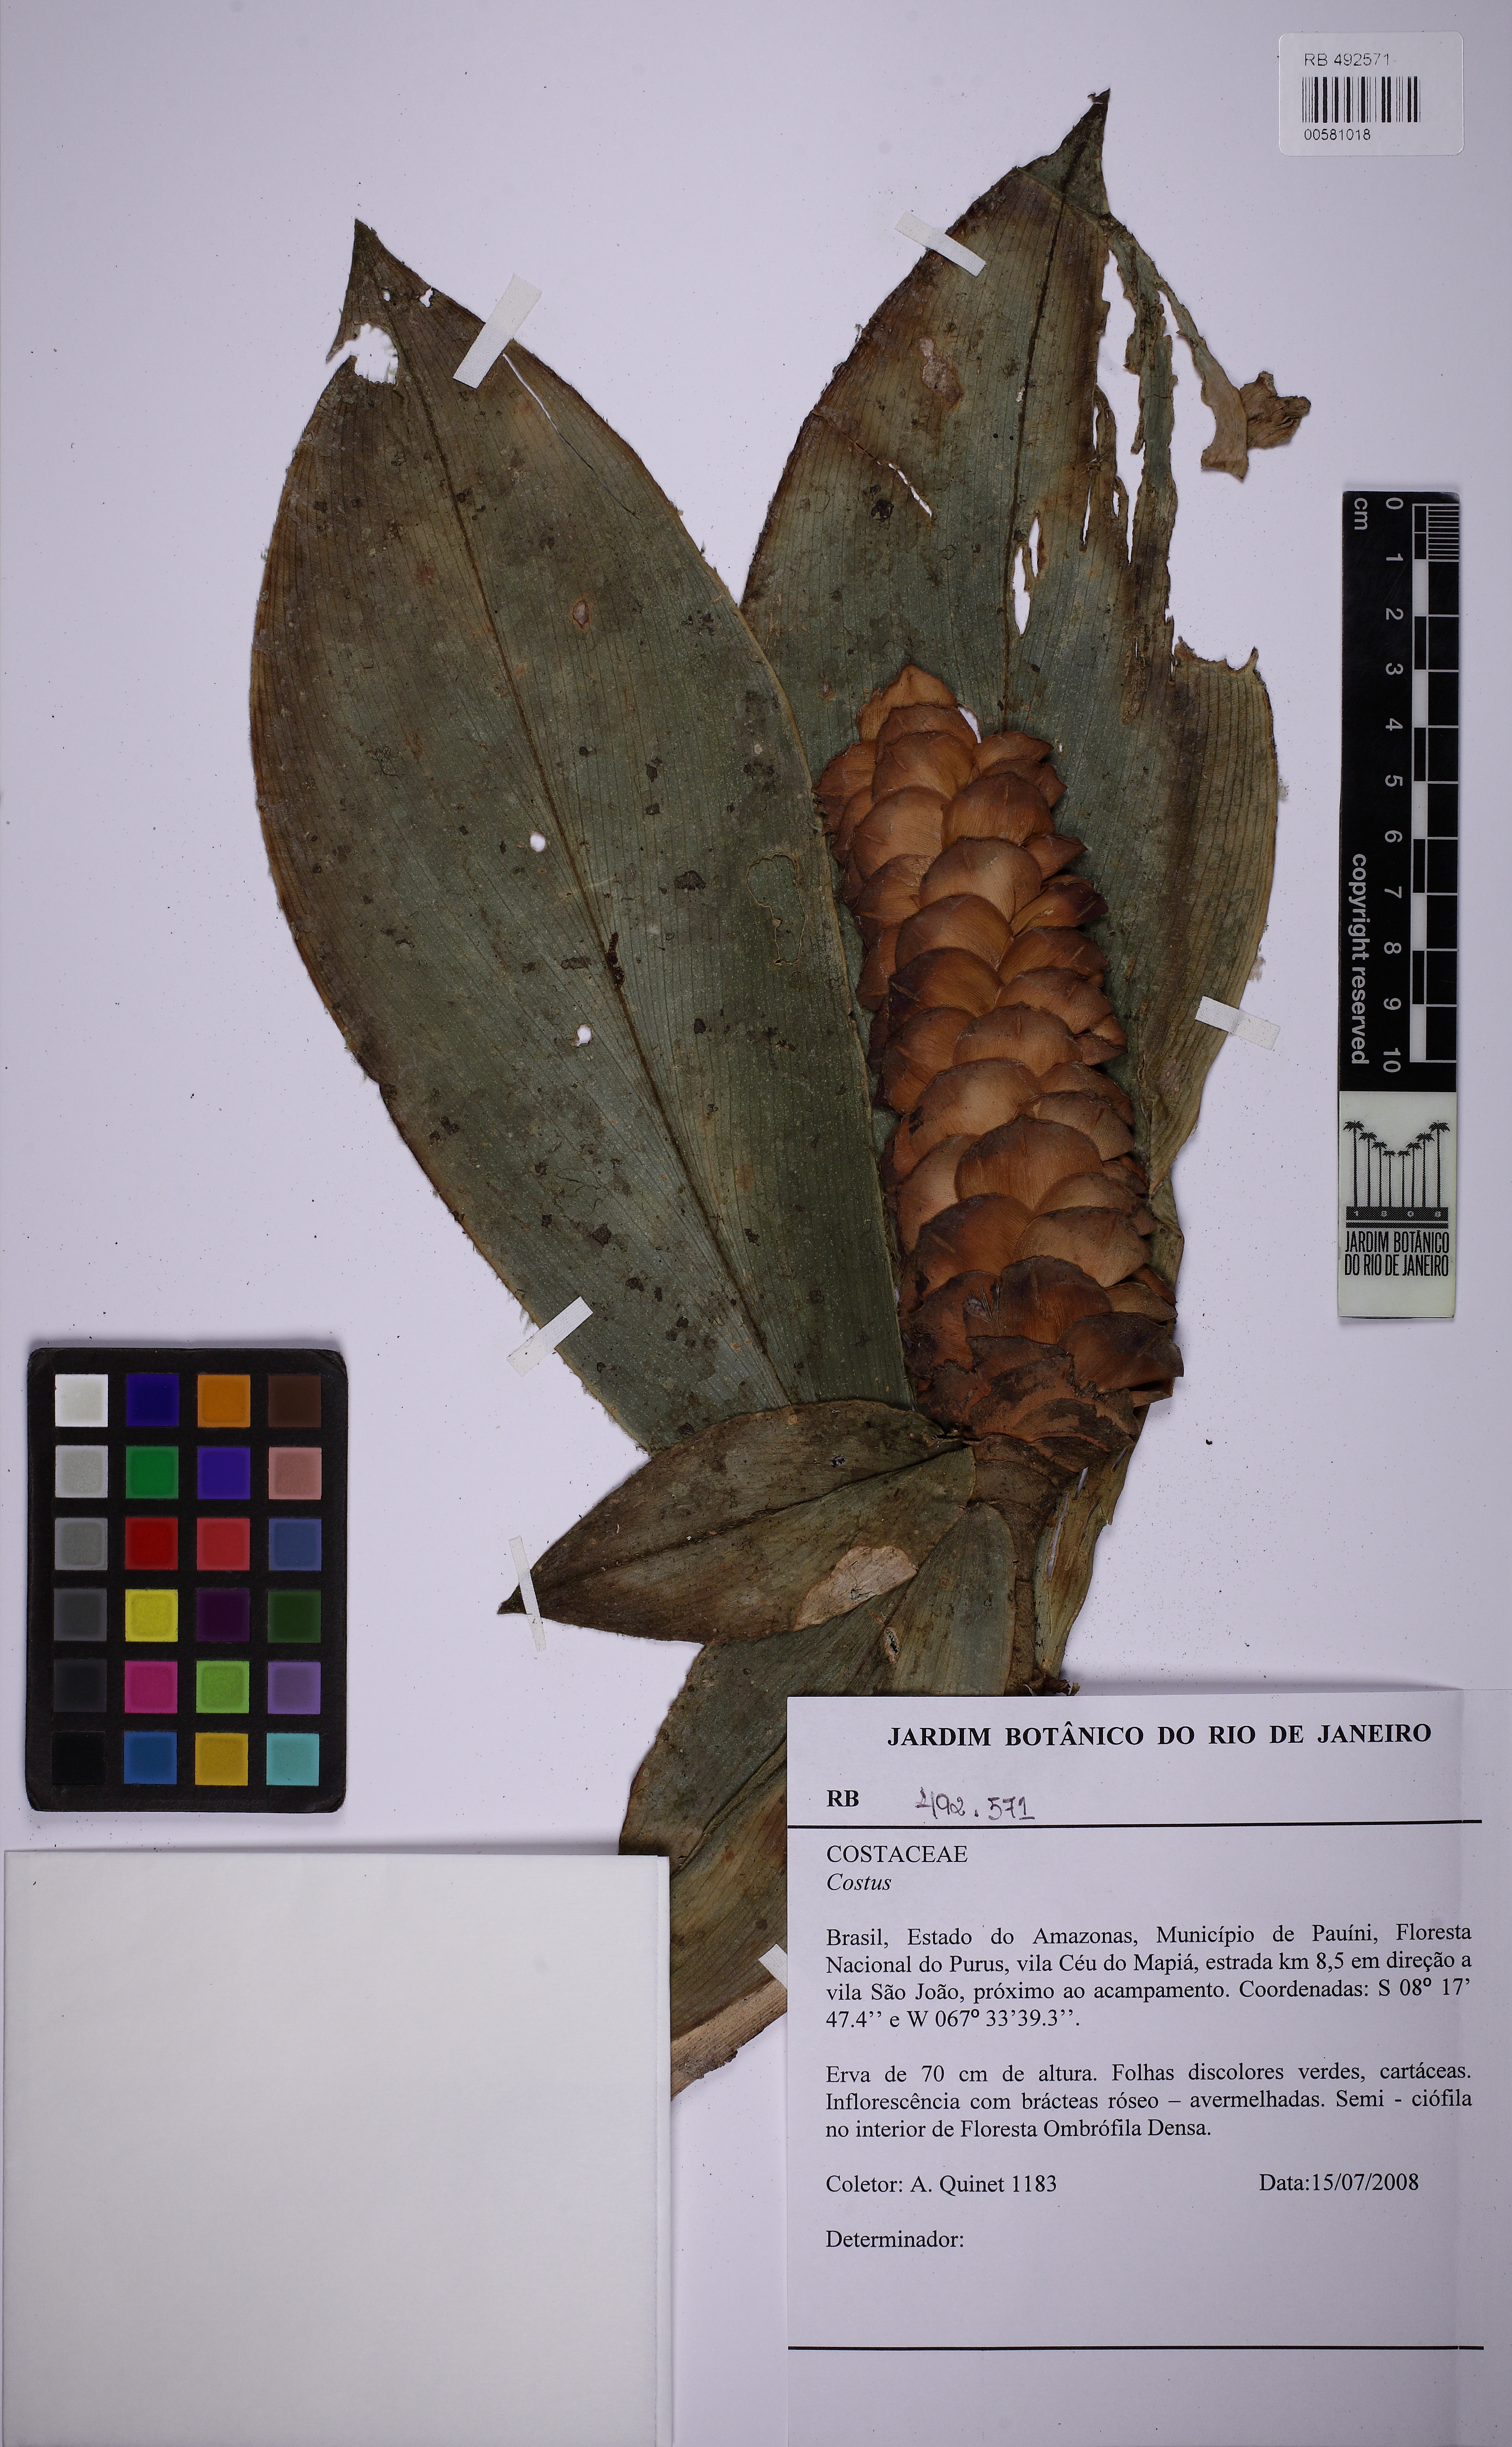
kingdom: Plantae
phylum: Tracheophyta
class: Liliopsida
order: Zingiberales
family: Costaceae
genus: Costus
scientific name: Costus scaber
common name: Spiral head ginger
